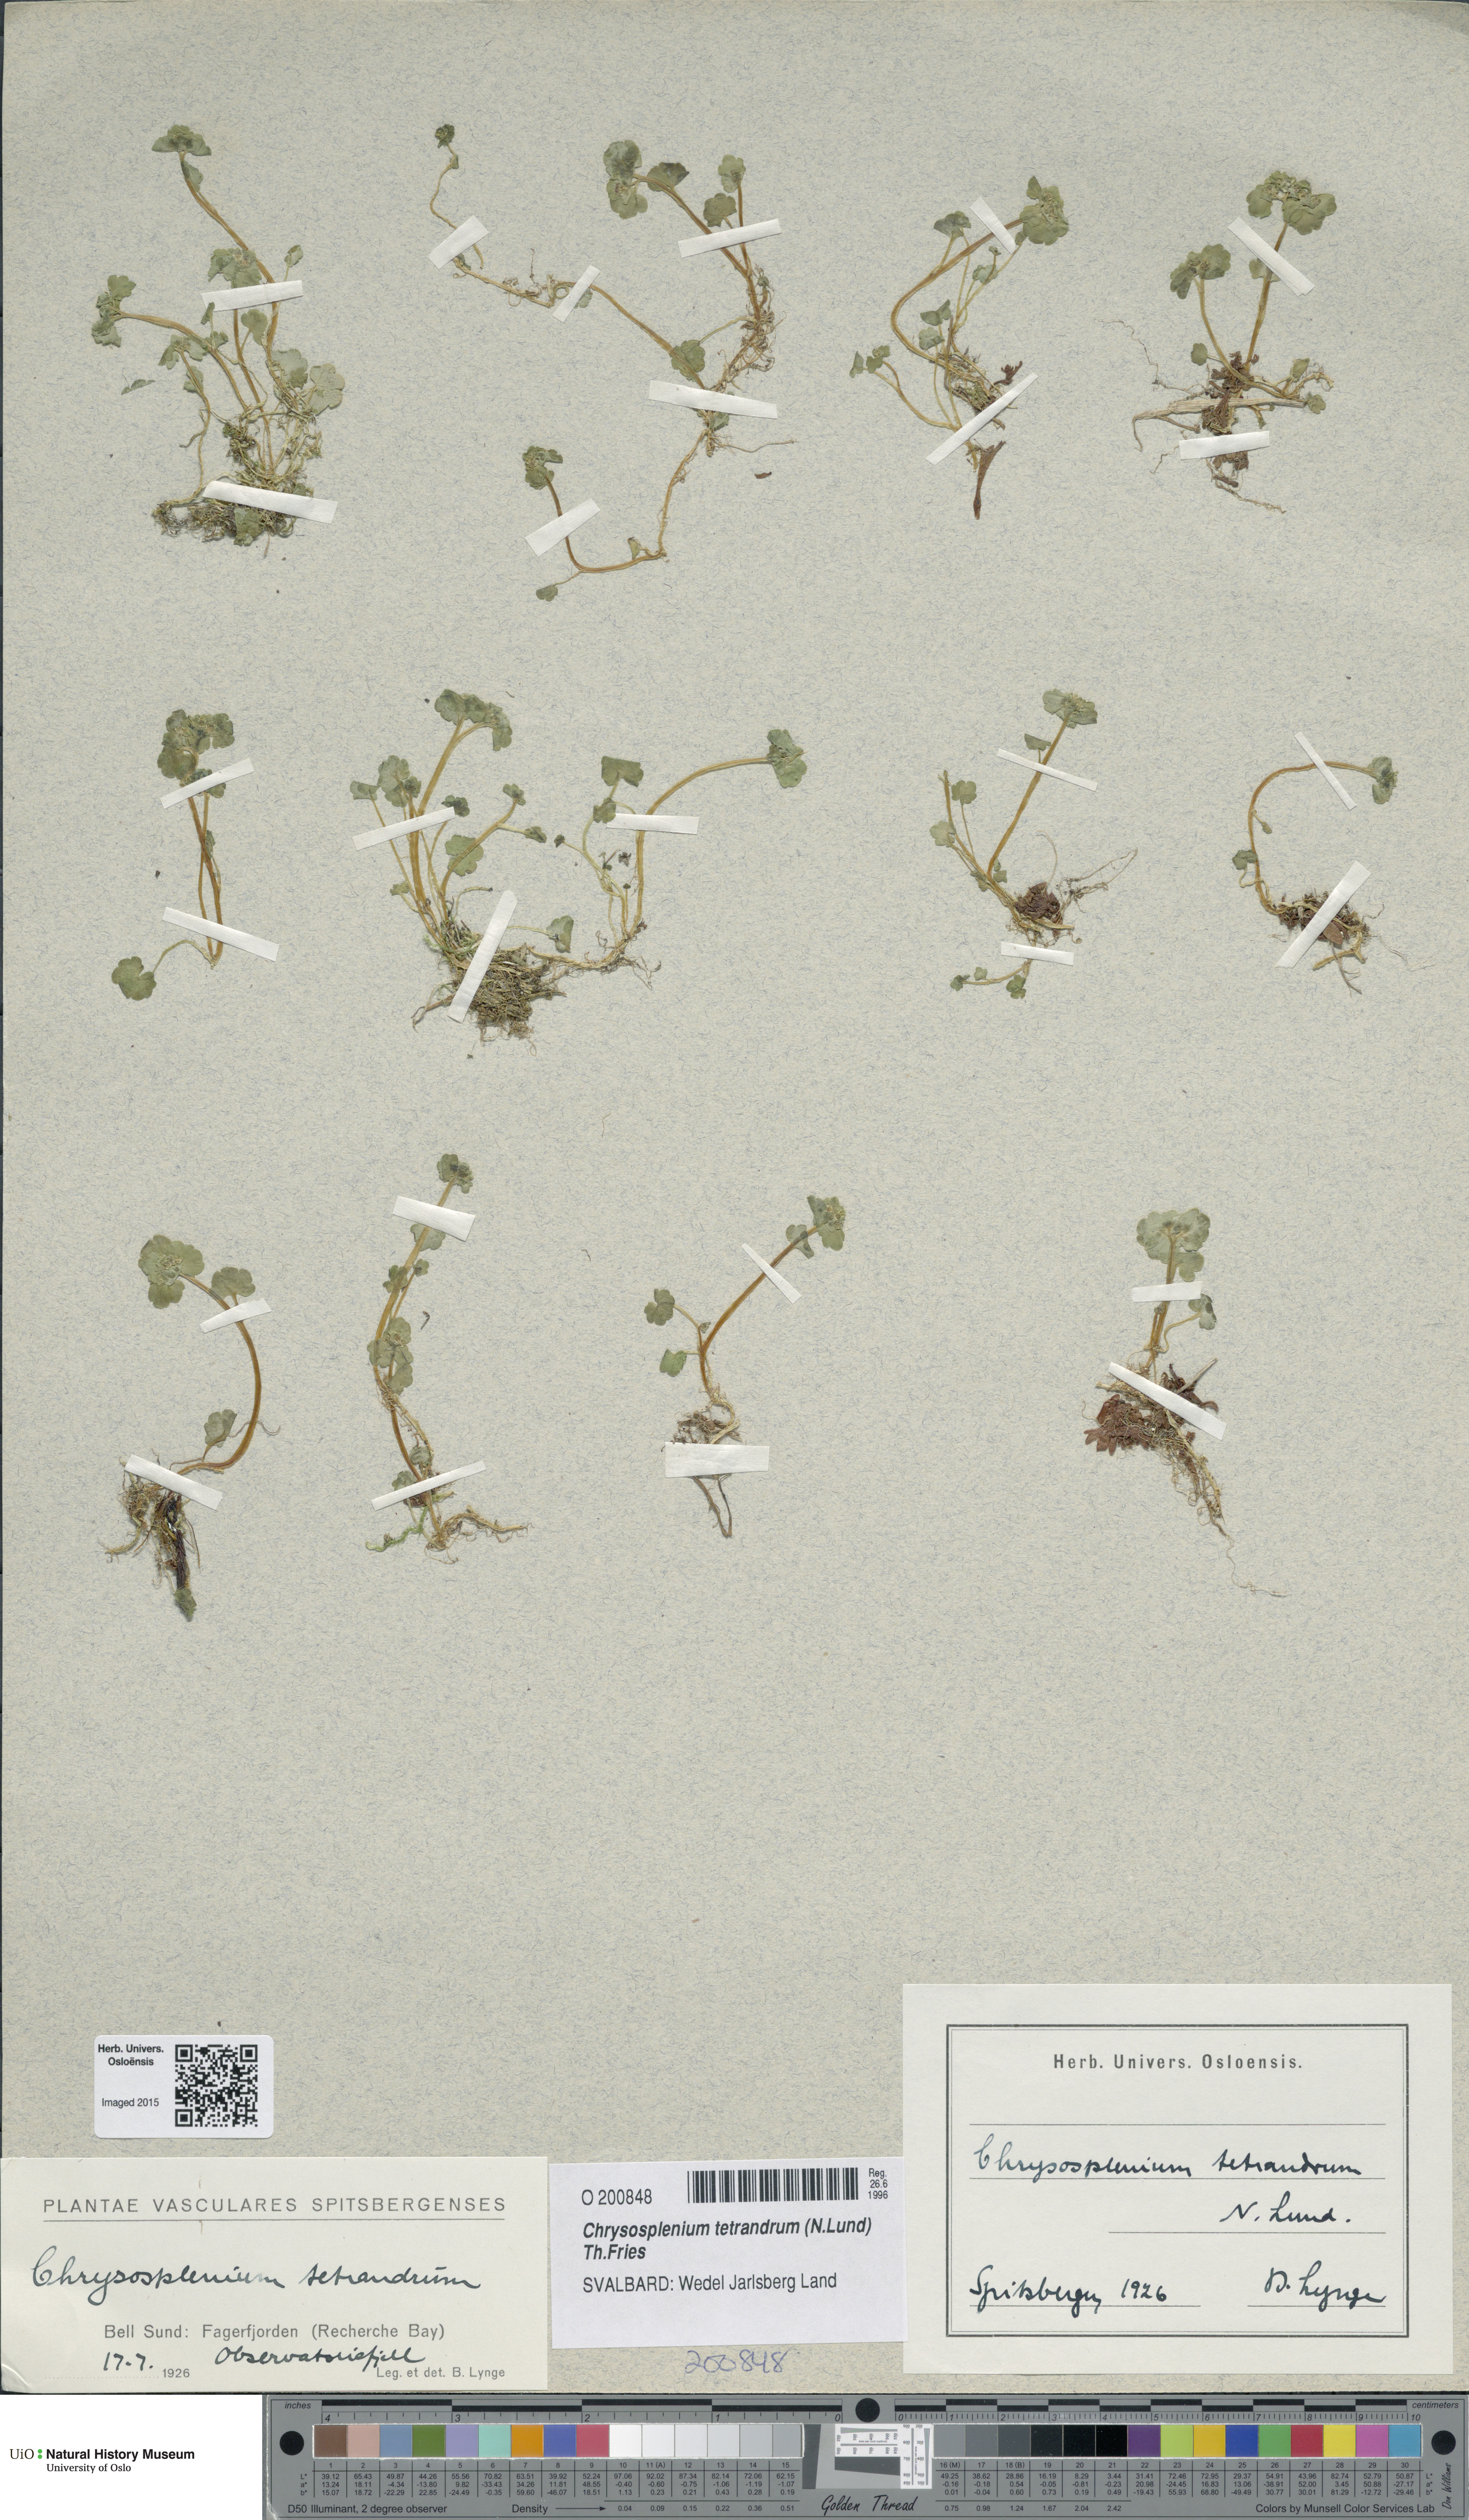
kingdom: Plantae
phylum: Tracheophyta
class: Magnoliopsida
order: Saxifragales
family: Saxifragaceae
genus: Chrysosplenium
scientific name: Chrysosplenium tetrandrum
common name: Green saxifrage
